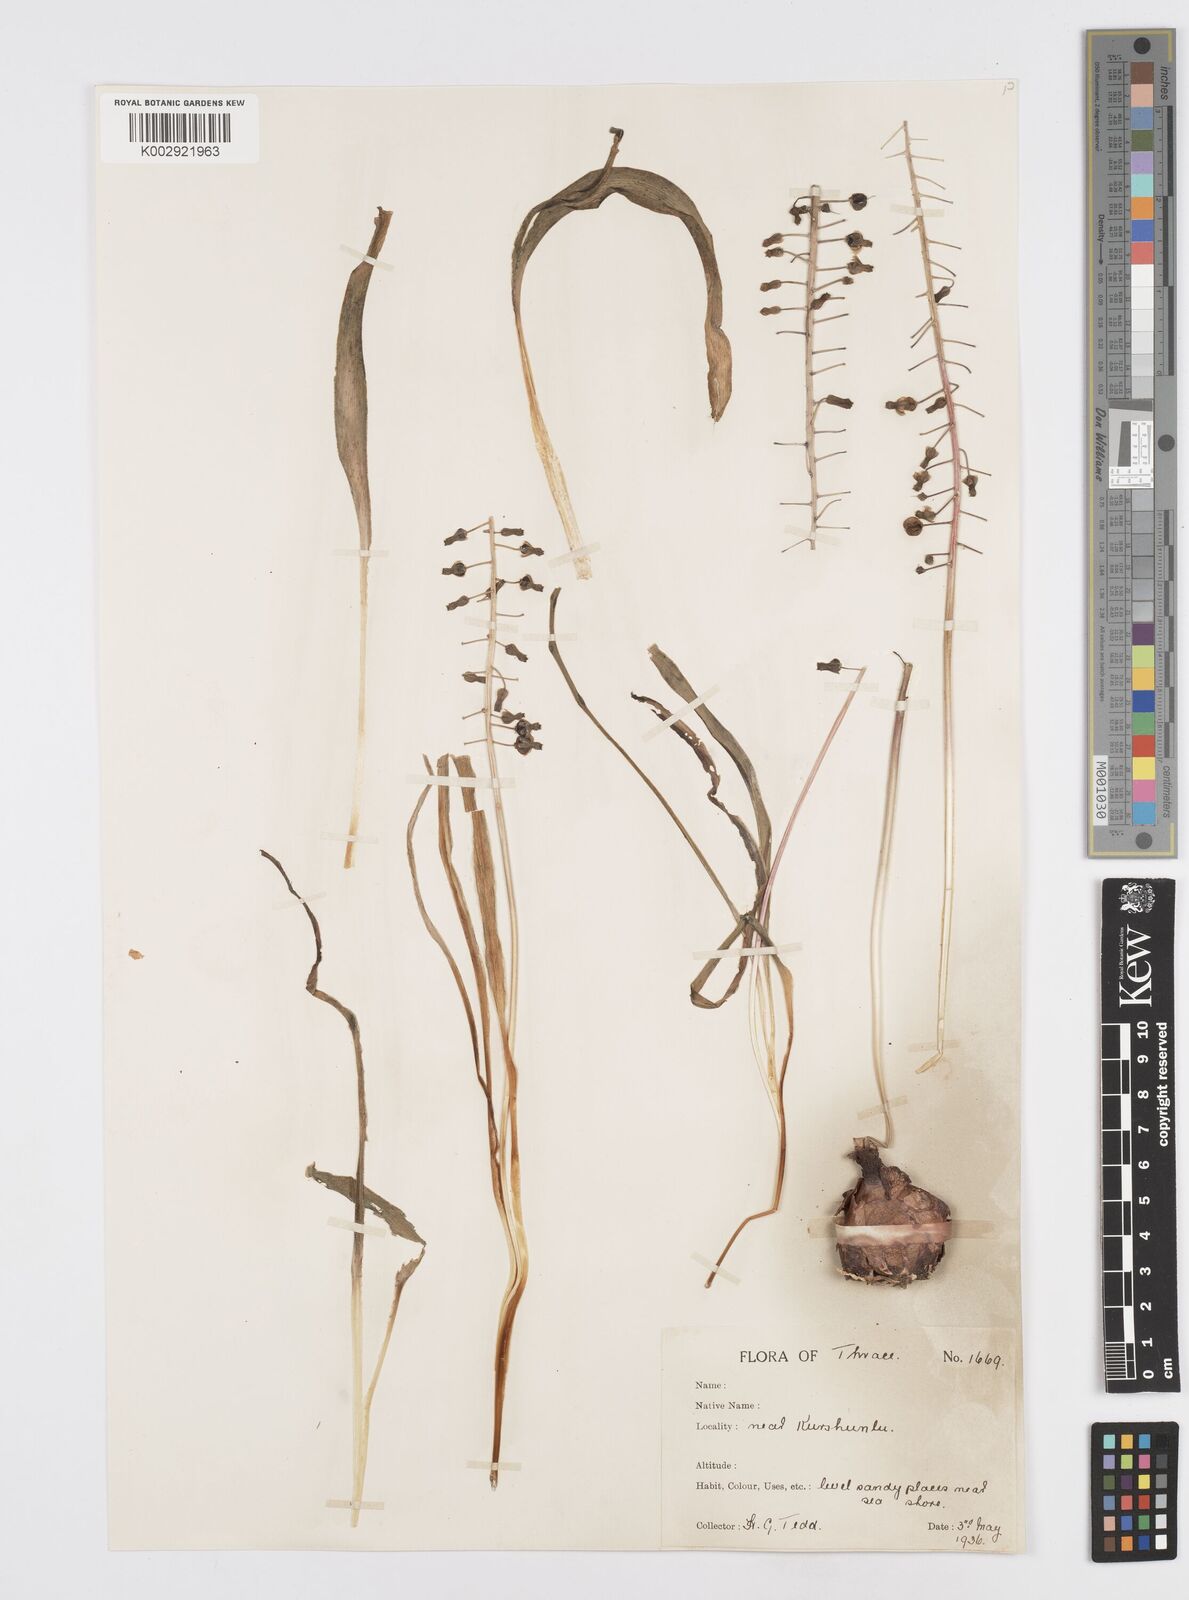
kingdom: Plantae
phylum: Tracheophyta
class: Liliopsida
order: Asparagales
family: Asparagaceae
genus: Muscari
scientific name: Muscari comosum
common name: Tassel hyacinth
